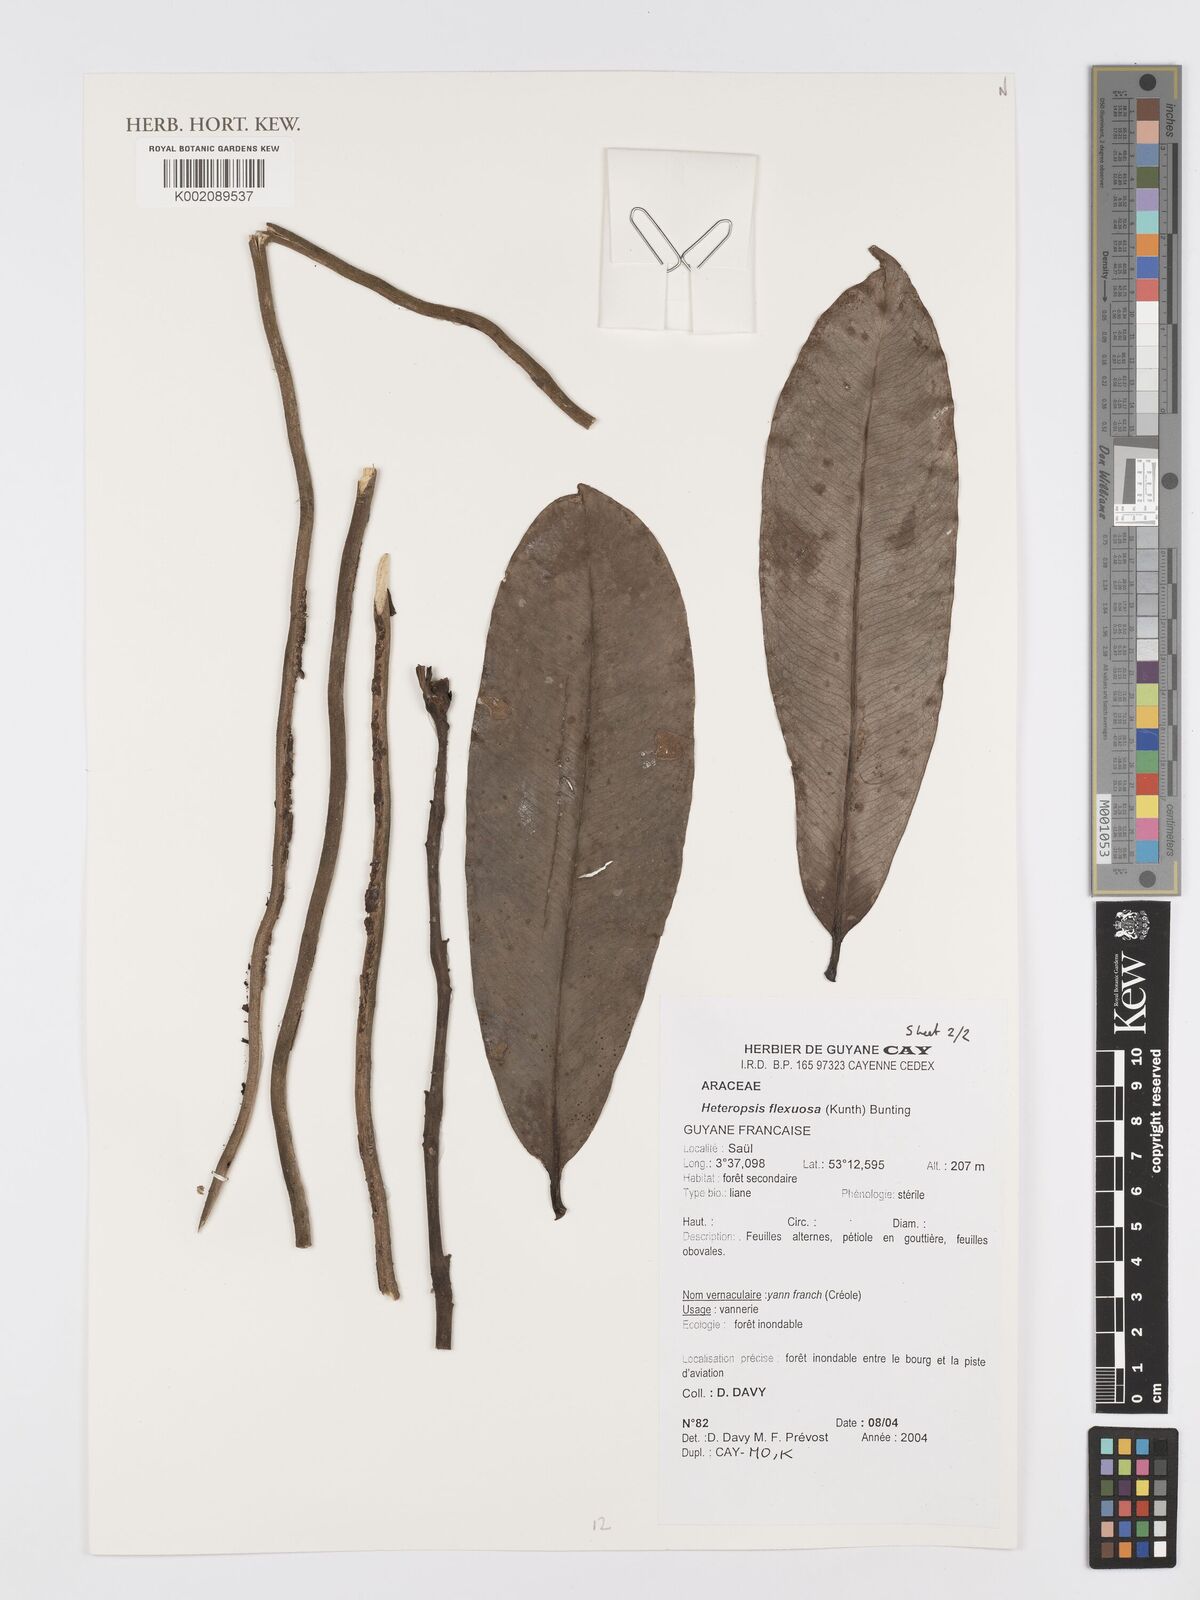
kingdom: Plantae
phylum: Tracheophyta
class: Liliopsida
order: Alismatales
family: Araceae
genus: Heteropsis
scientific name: Heteropsis flexuosa
